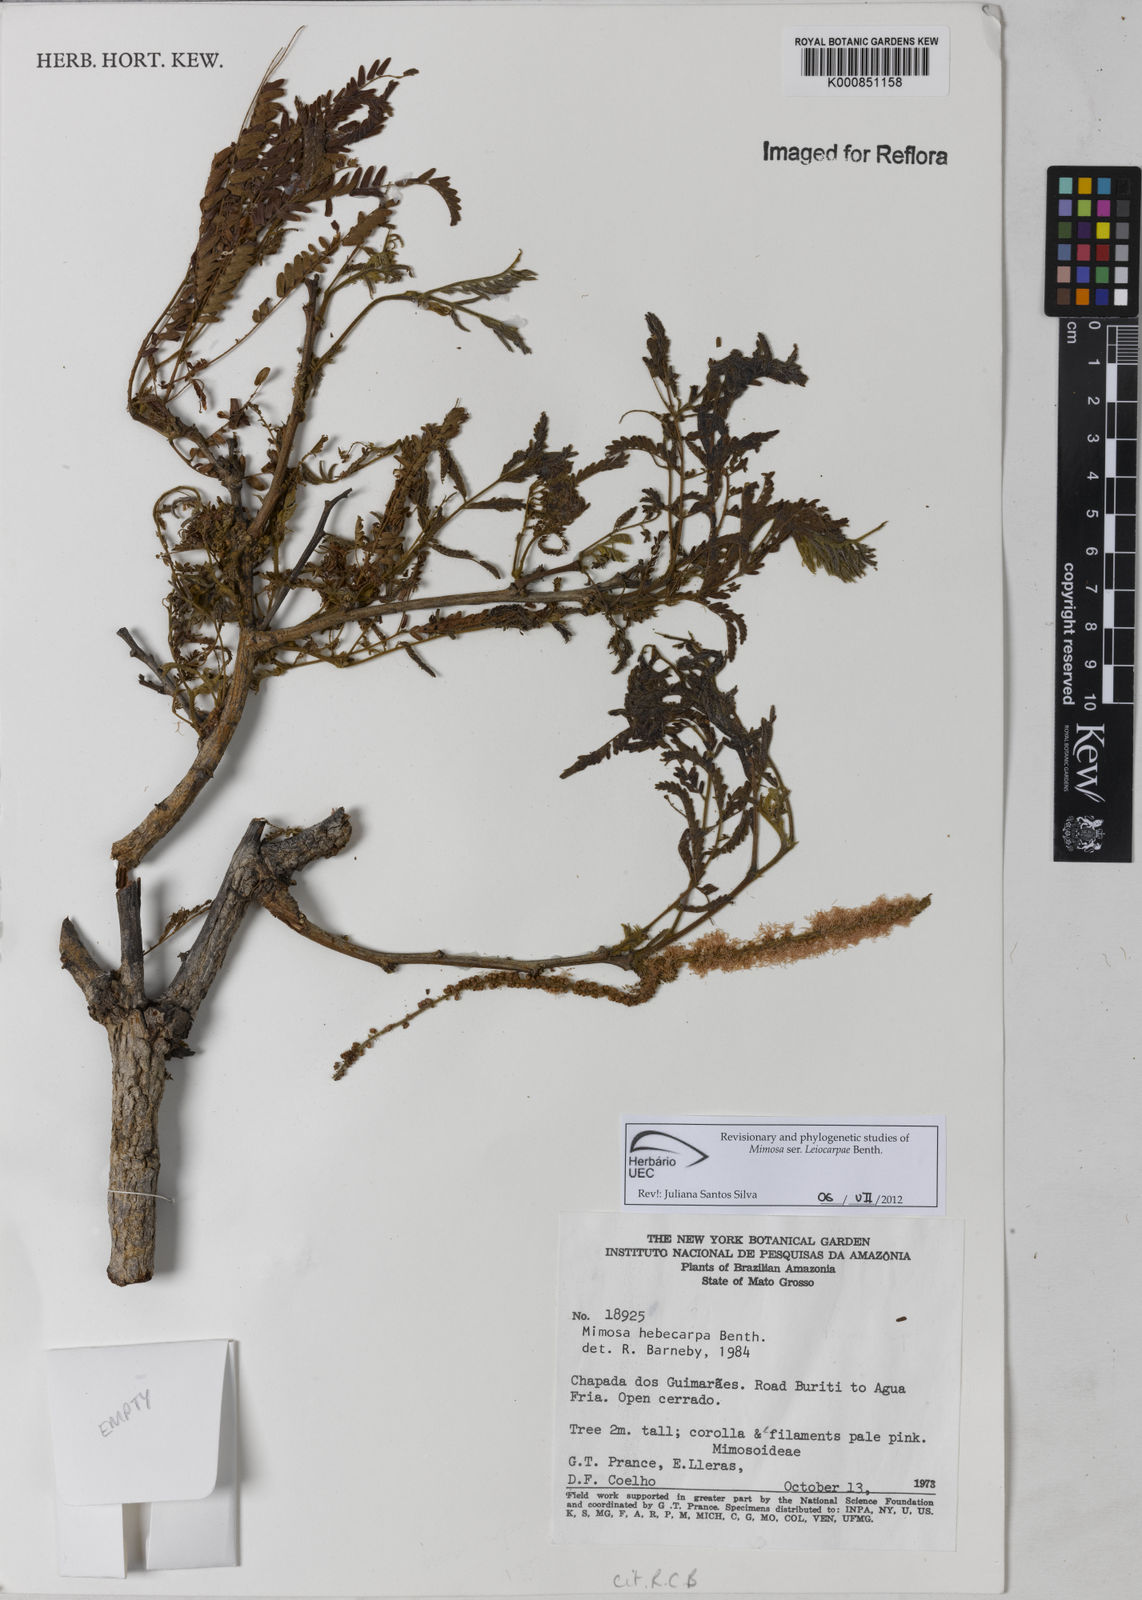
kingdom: Plantae
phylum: Tracheophyta
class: Magnoliopsida
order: Fabales
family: Fabaceae
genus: Mimosa
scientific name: Mimosa hebecarpa
